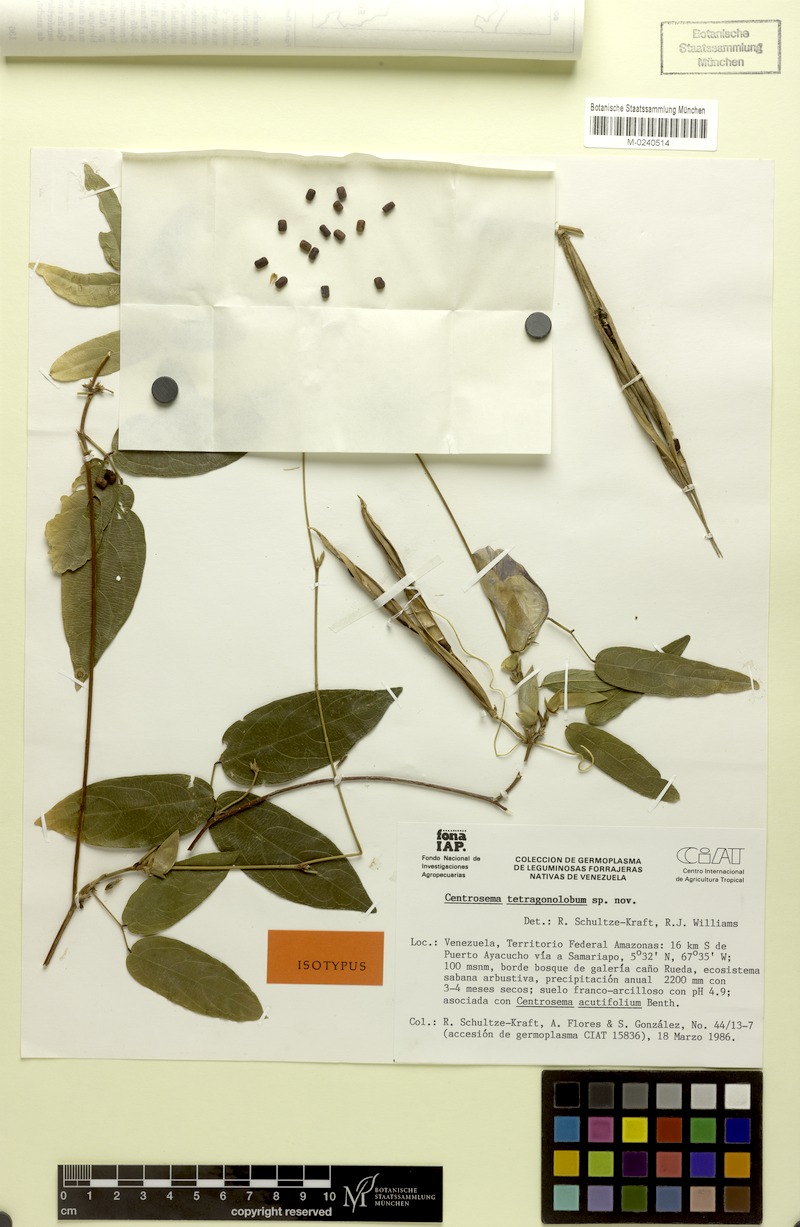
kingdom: Plantae
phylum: Tracheophyta
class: Magnoliopsida
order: Fabales
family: Fabaceae
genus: Centrosema
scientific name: Centrosema tetragonolobum
